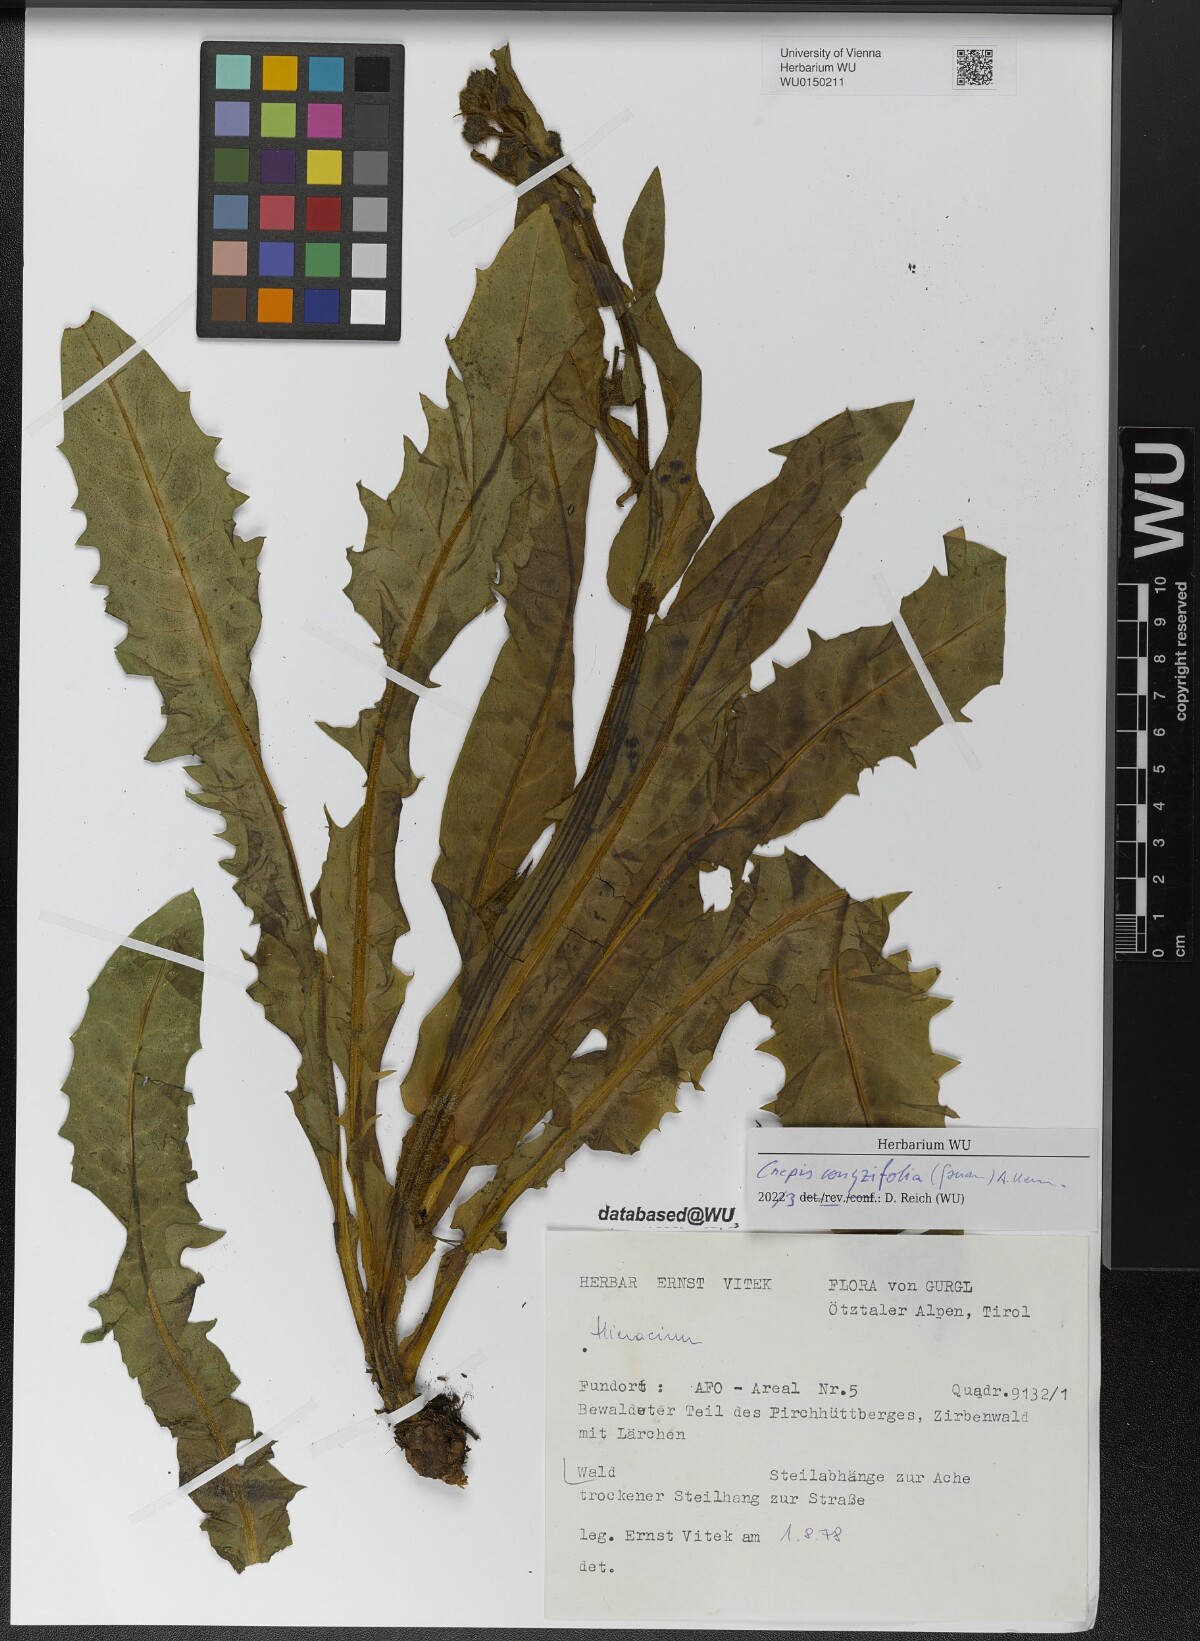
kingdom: Plantae
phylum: Tracheophyta
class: Magnoliopsida
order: Asterales
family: Asteraceae
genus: Crepis
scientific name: Crepis blattarioides
